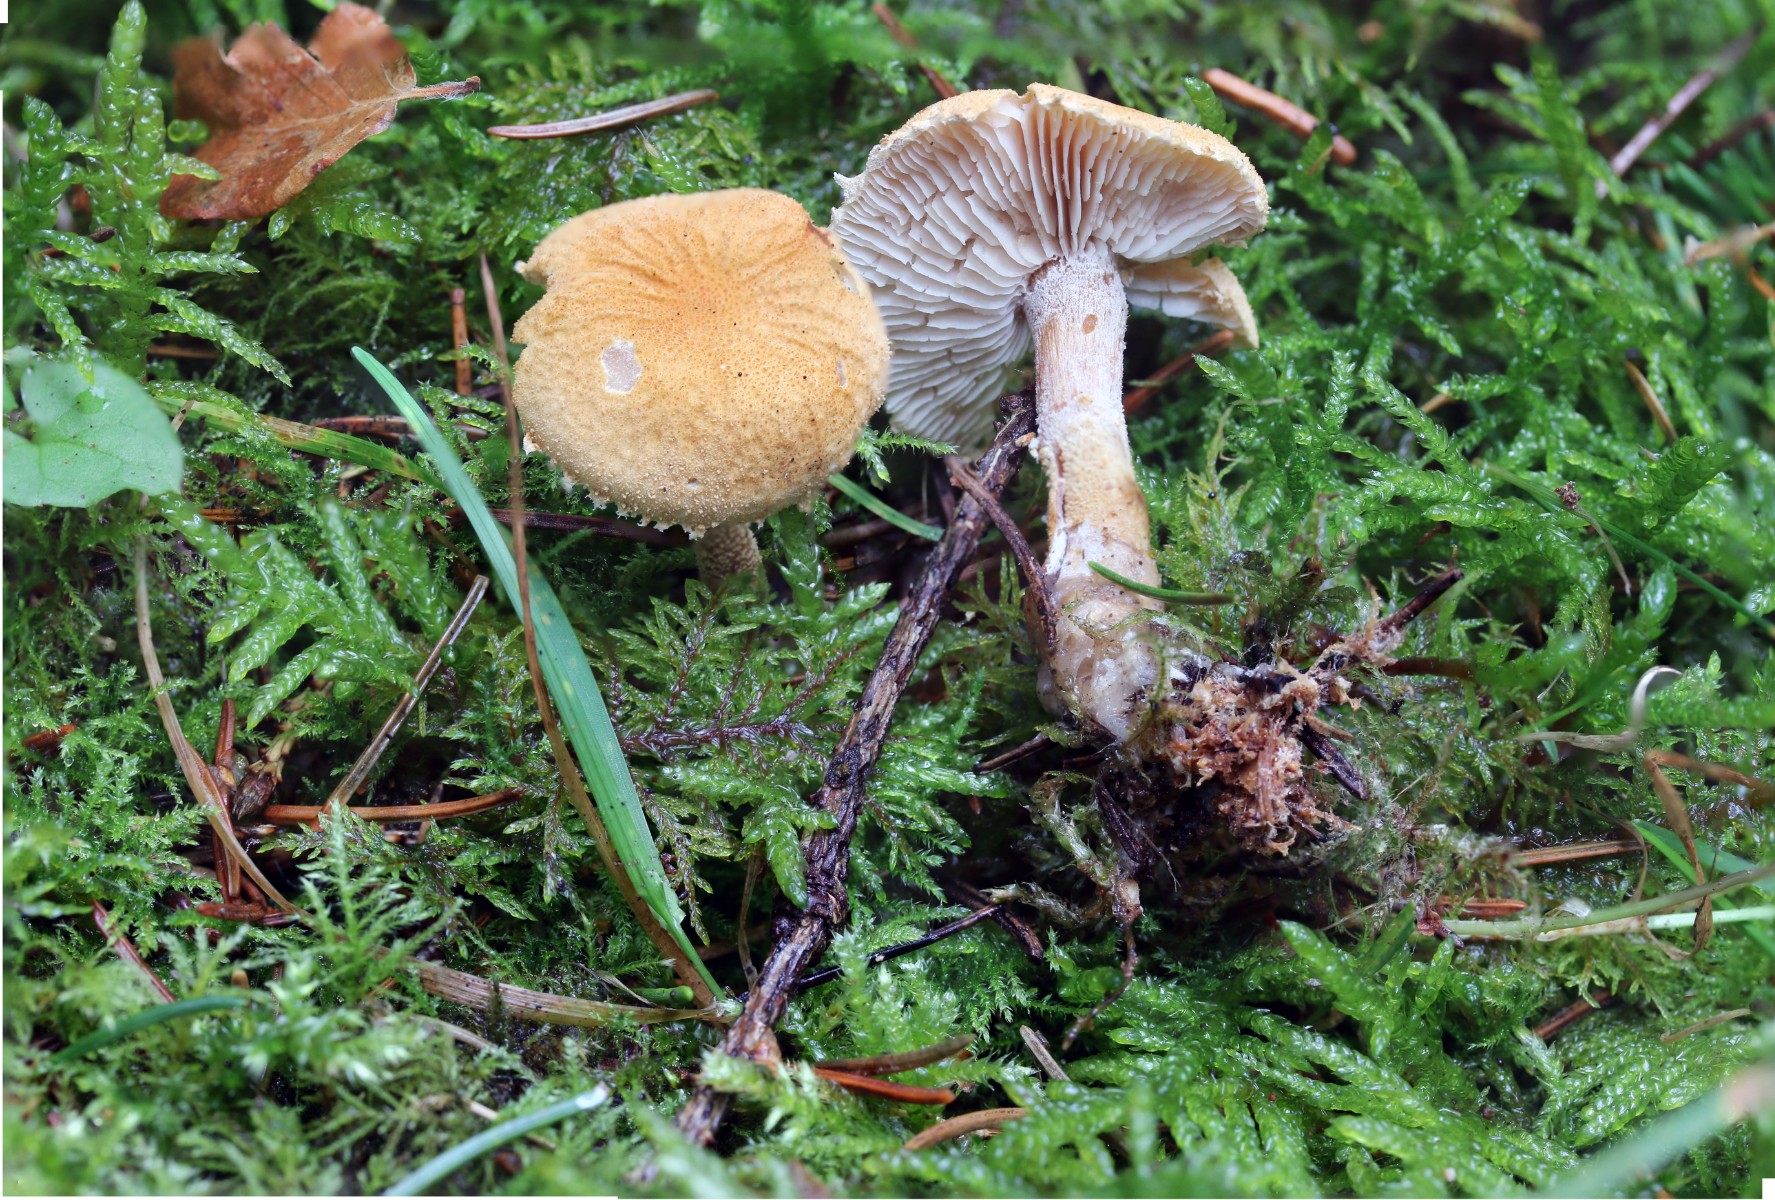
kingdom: Fungi
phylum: Basidiomycota
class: Agaricomycetes
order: Agaricales
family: Tricholomataceae
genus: Cystoderma
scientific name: Cystoderma amianthinum
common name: okkergul grynhat
